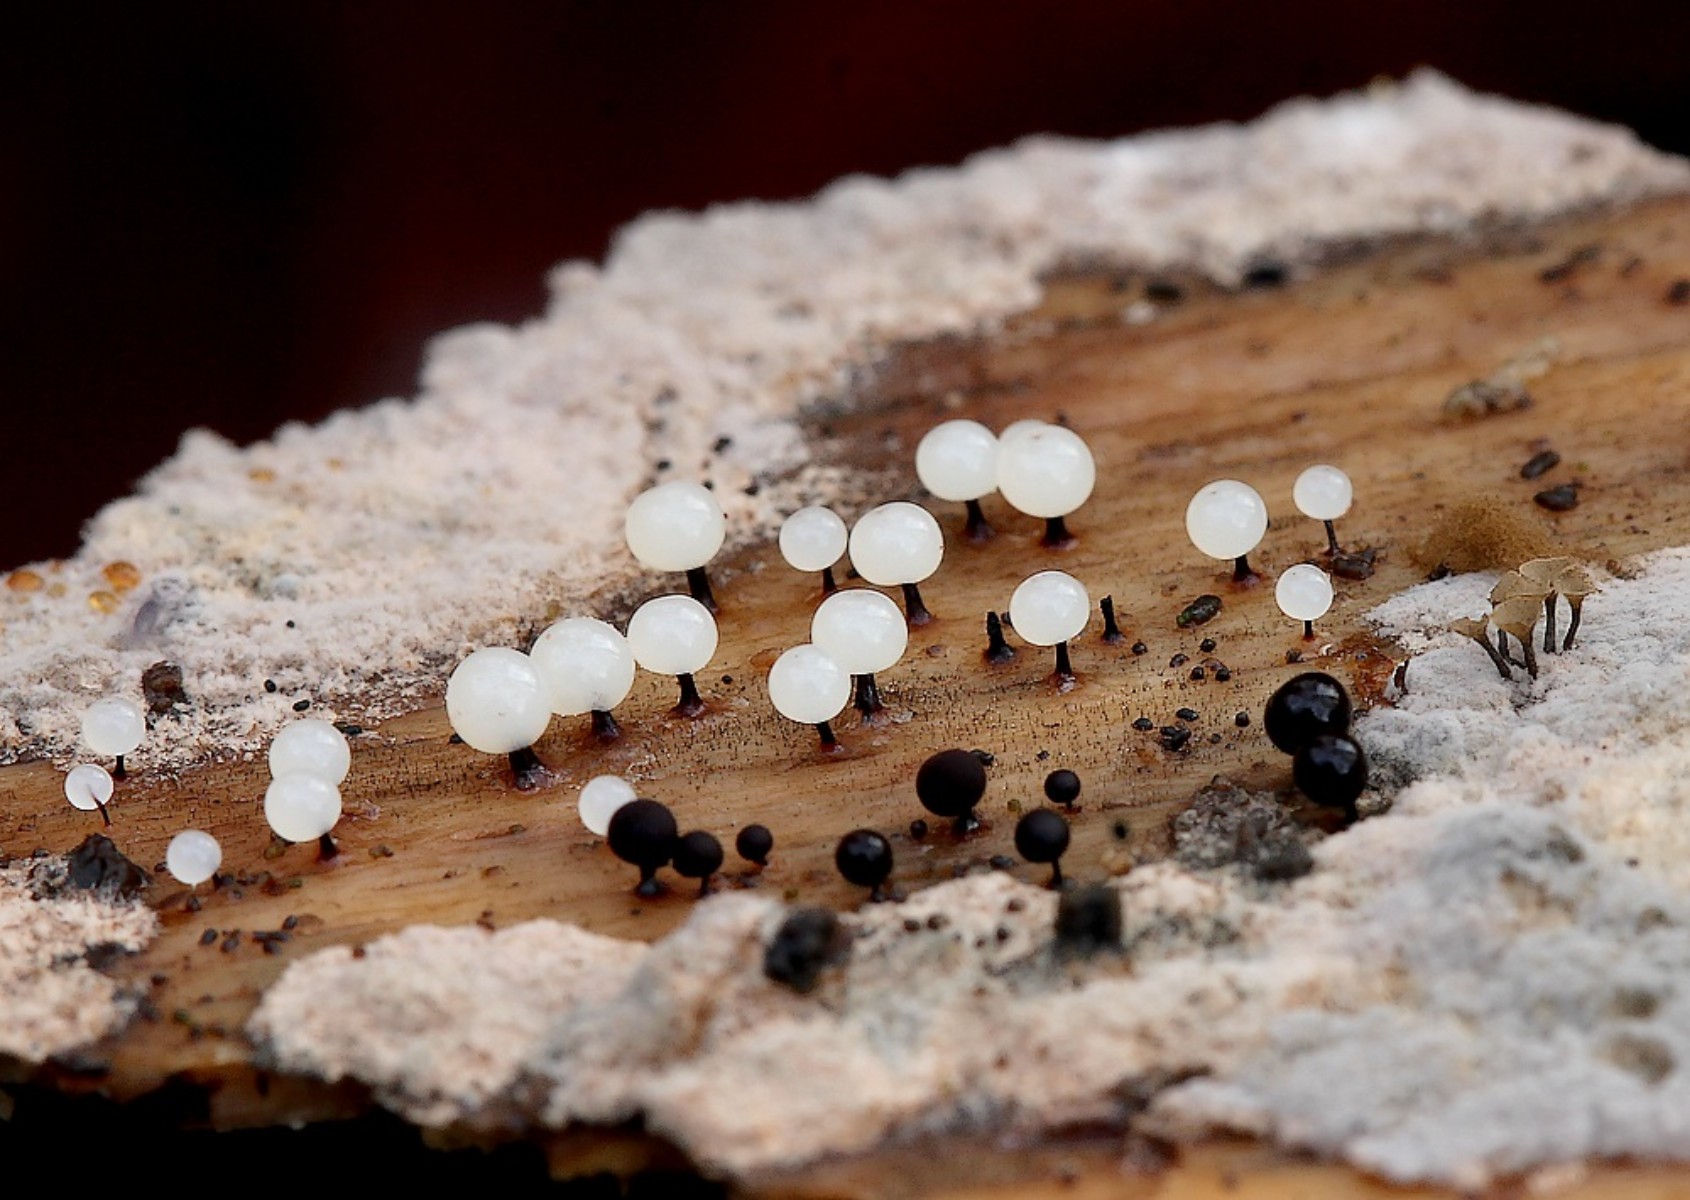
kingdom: Protozoa
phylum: Mycetozoa
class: Myxomycetes
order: Stemonitidales
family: Stemonitidaceae
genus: Enerthenema
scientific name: Enerthenema papillatum
